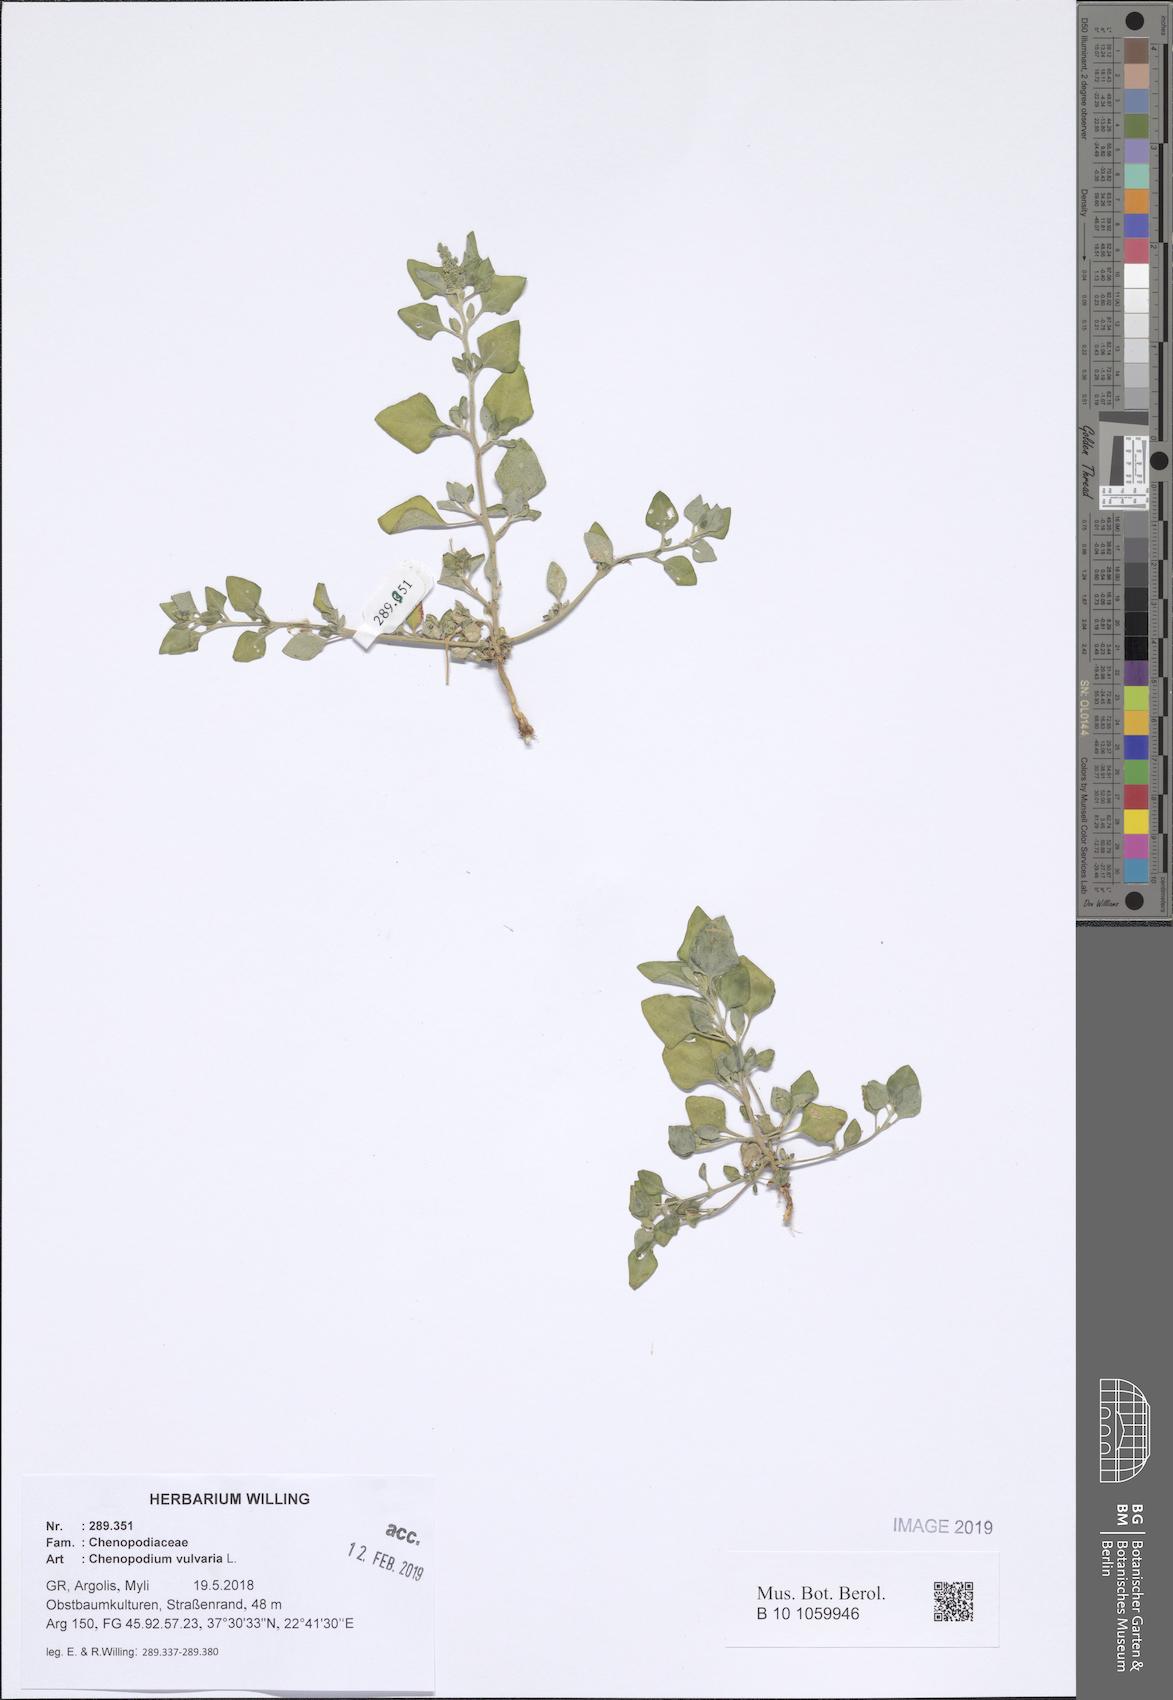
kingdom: Plantae
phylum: Tracheophyta
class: Magnoliopsida
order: Caryophyllales
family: Amaranthaceae
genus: Chenopodium
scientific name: Chenopodium vulvaria
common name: Stinking goosefoot
